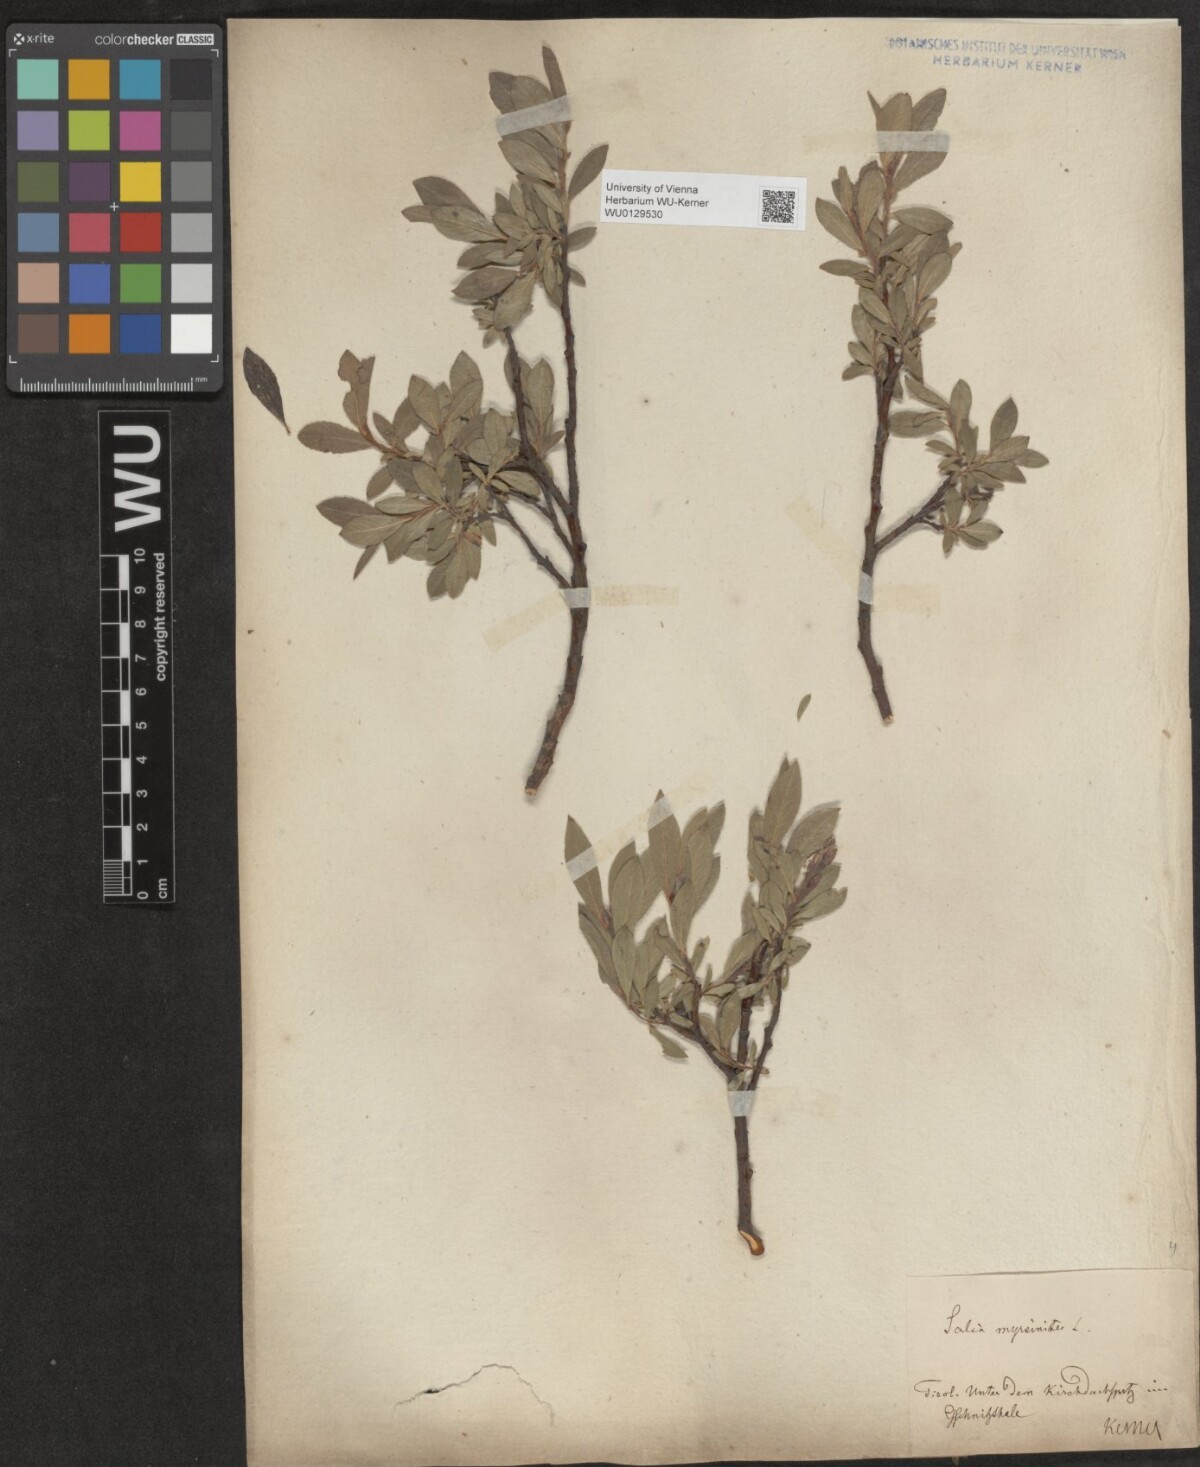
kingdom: Plantae
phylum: Tracheophyta
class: Magnoliopsida
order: Malpighiales
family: Salicaceae
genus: Salix
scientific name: Salix breviserrata
